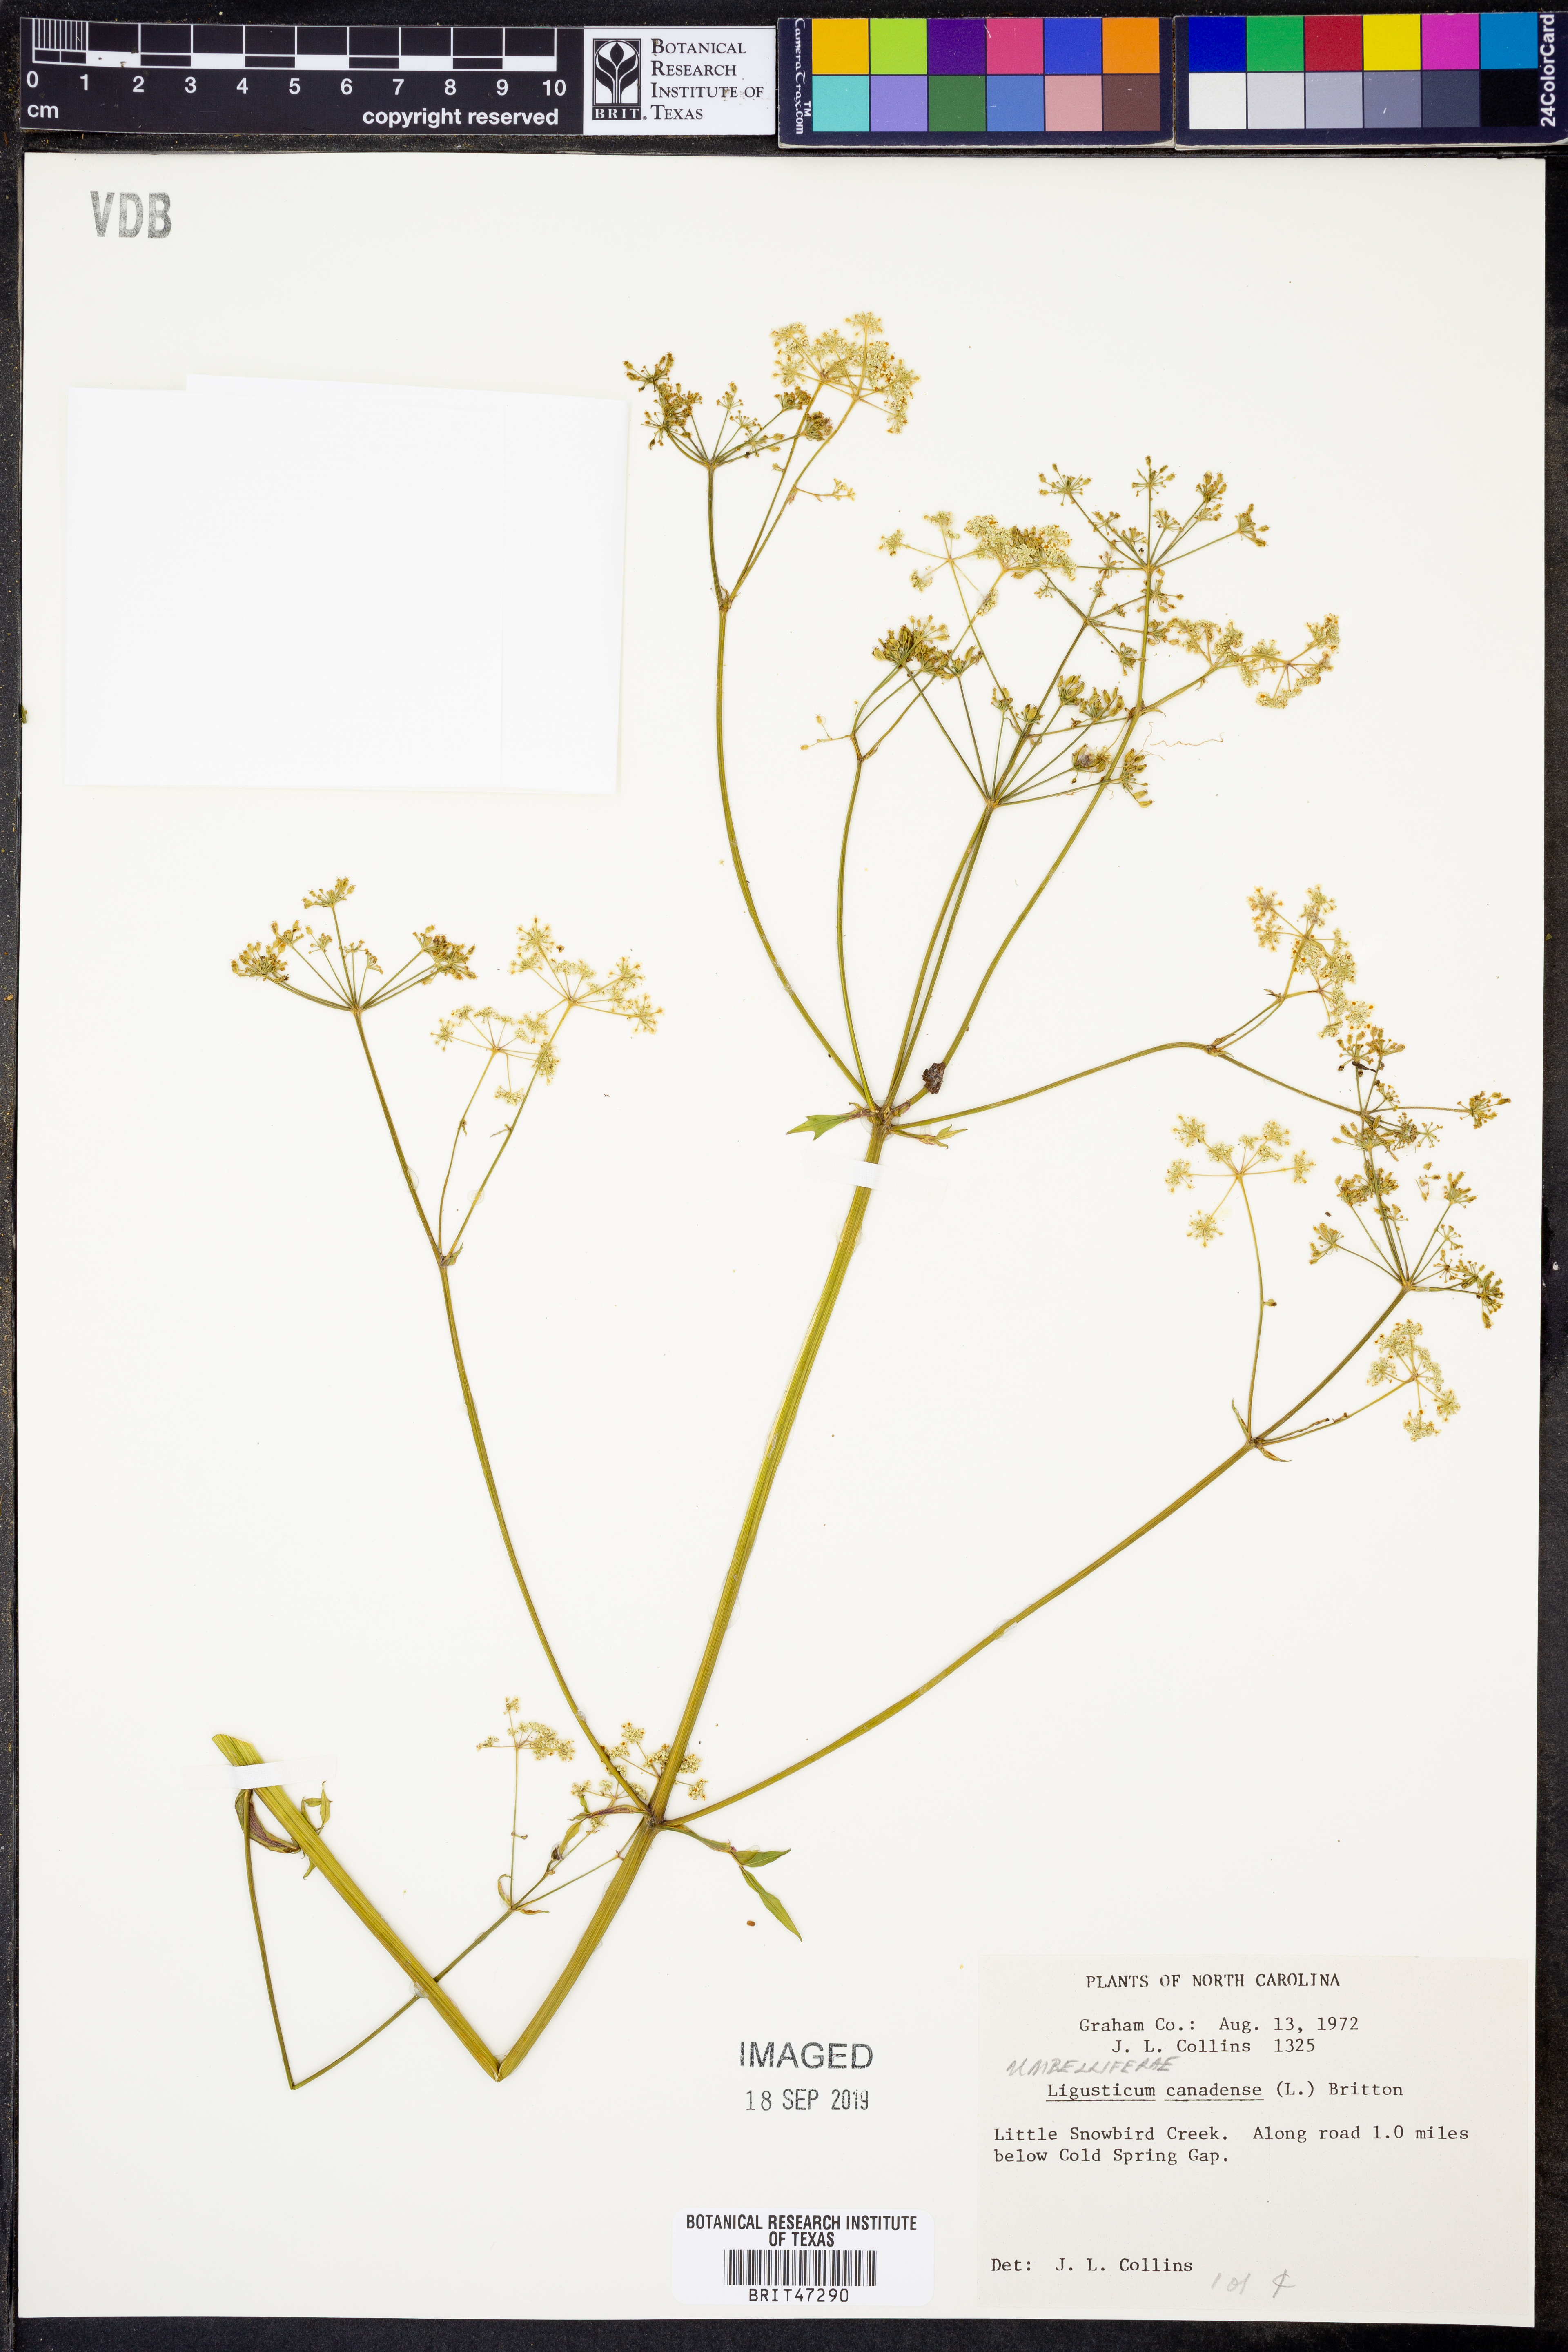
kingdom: Plantae
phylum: Tracheophyta
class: Magnoliopsida
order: Apiales
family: Apiaceae
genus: Ligusticum
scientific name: Ligusticum canadense
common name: American lovage
